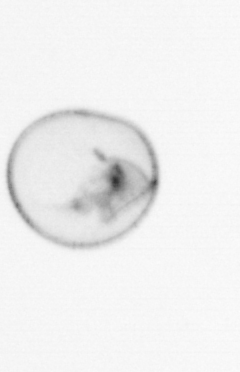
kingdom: Chromista
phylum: Myzozoa
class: Dinophyceae
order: Noctilucales
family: Noctilucaceae
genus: Noctiluca
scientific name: Noctiluca scintillans
